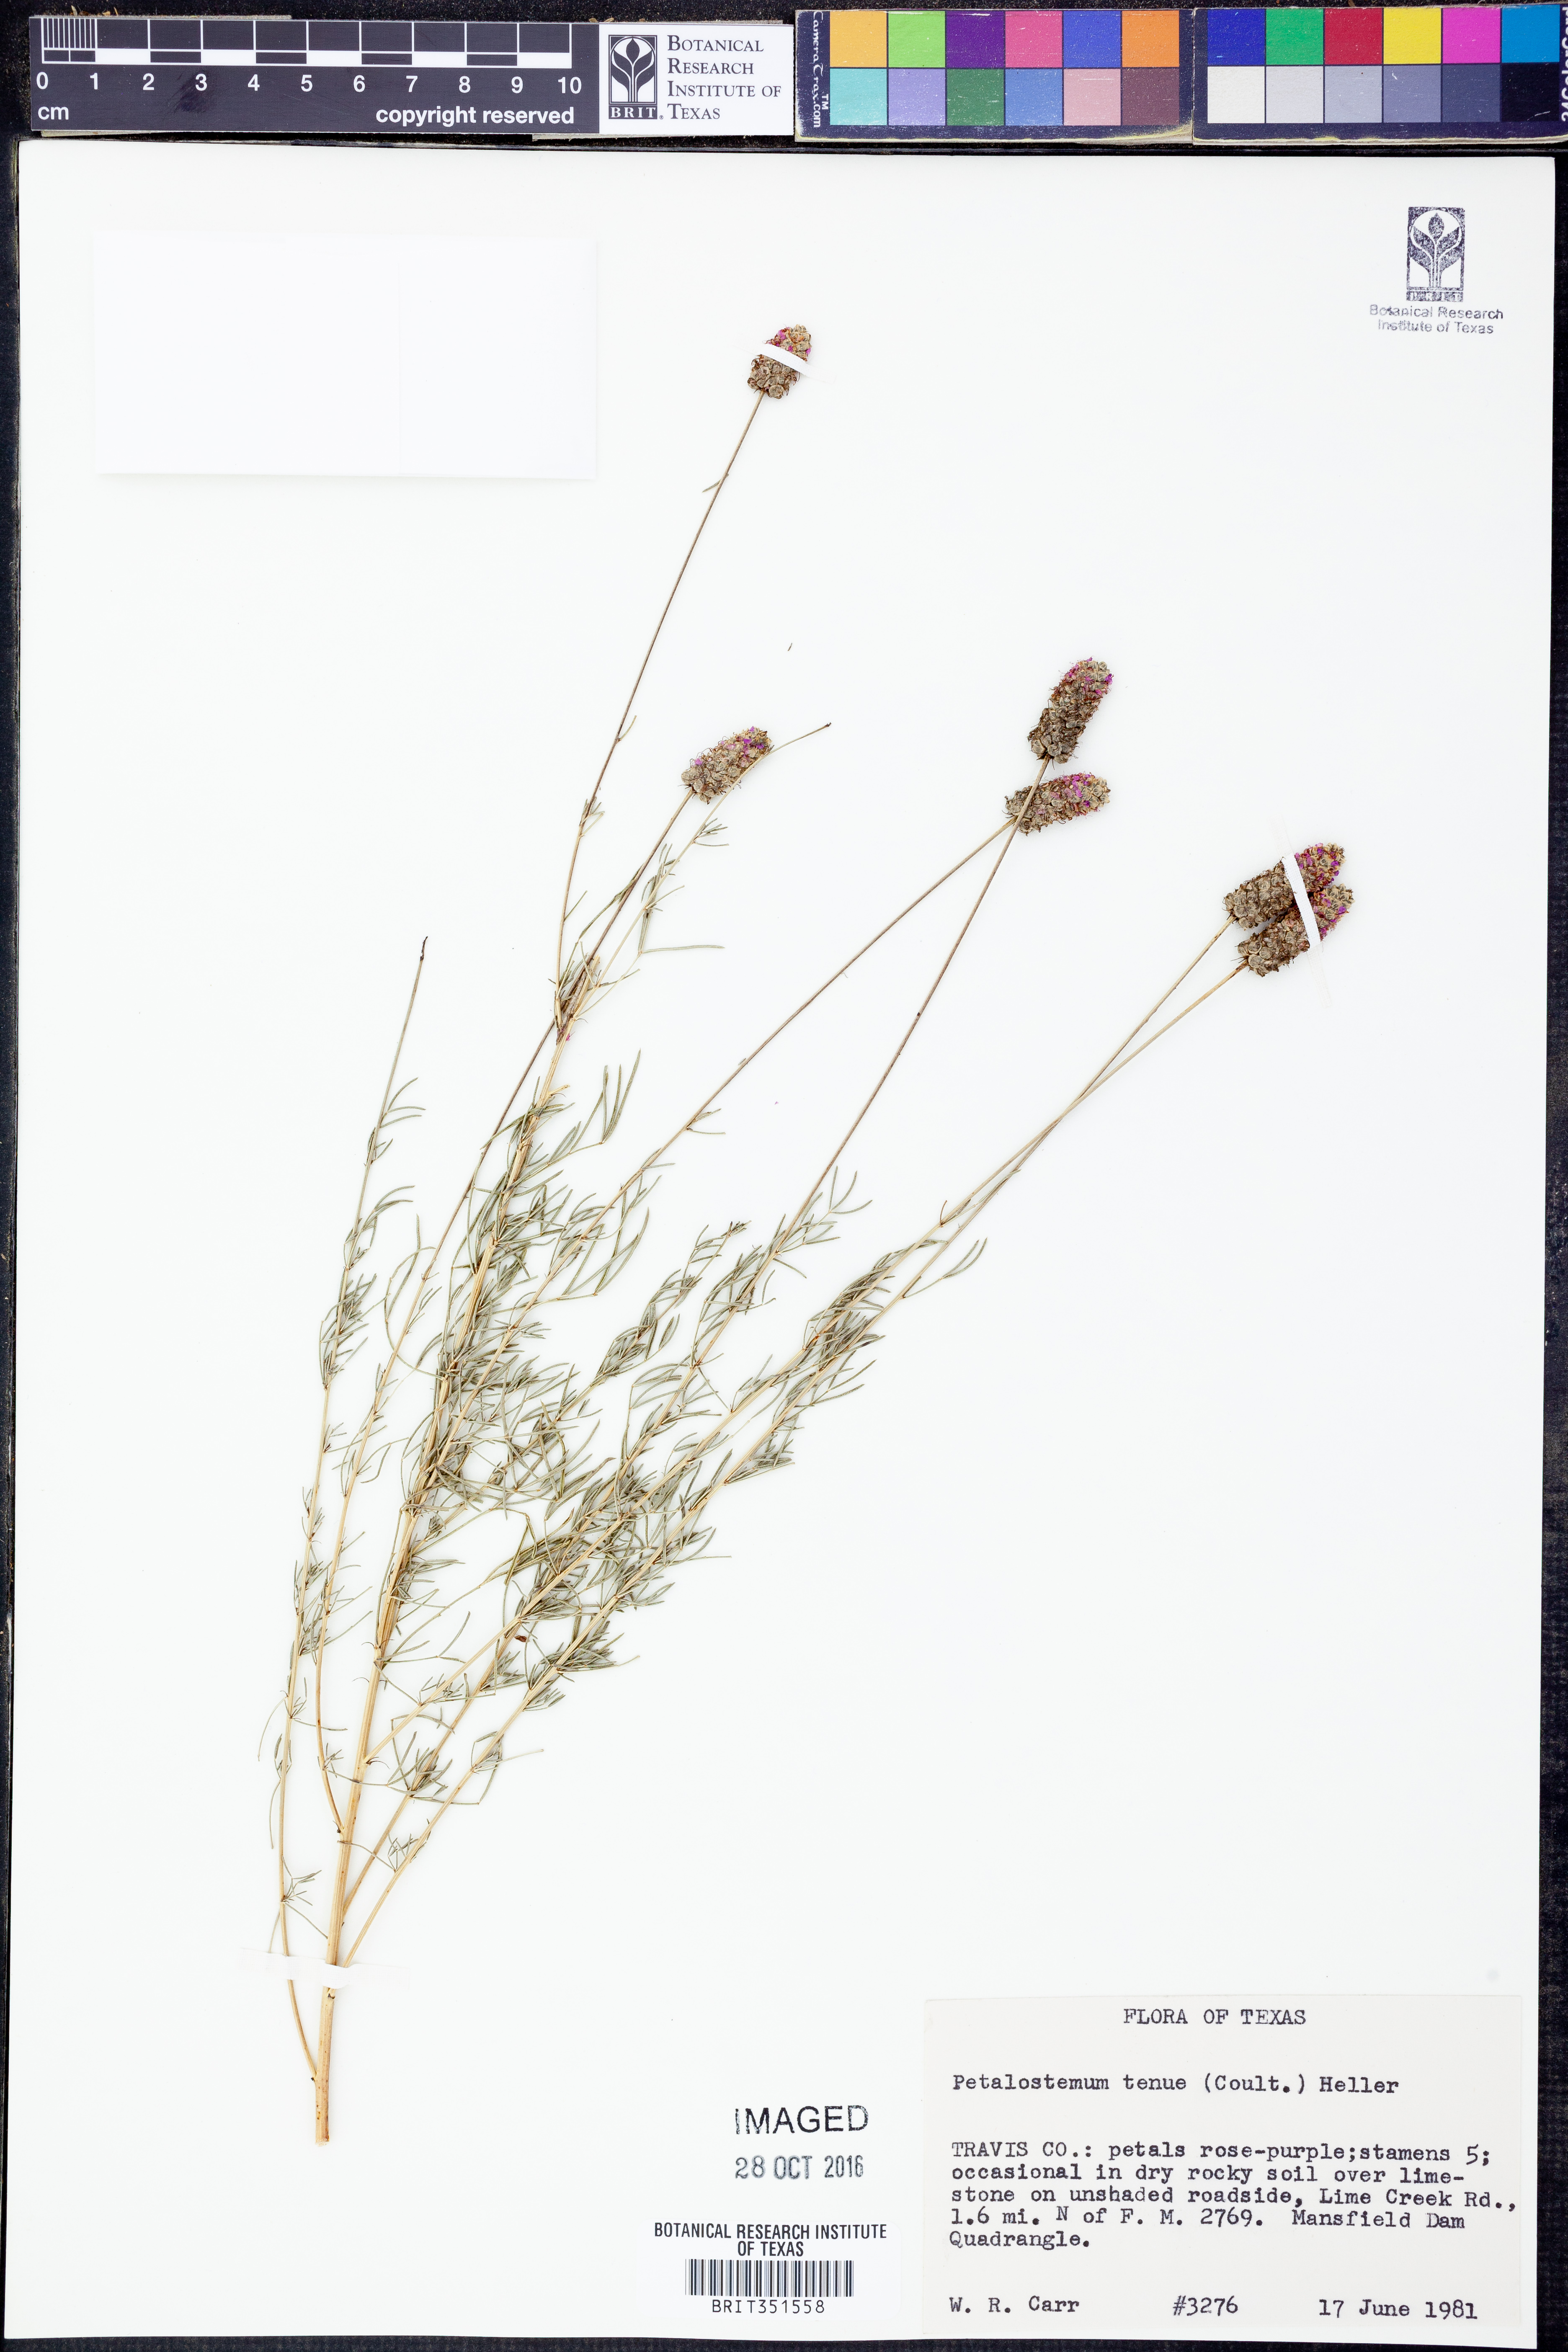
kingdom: Plantae
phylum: Tracheophyta
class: Magnoliopsida
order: Fabales
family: Fabaceae
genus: Dalea
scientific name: Dalea tenuis
